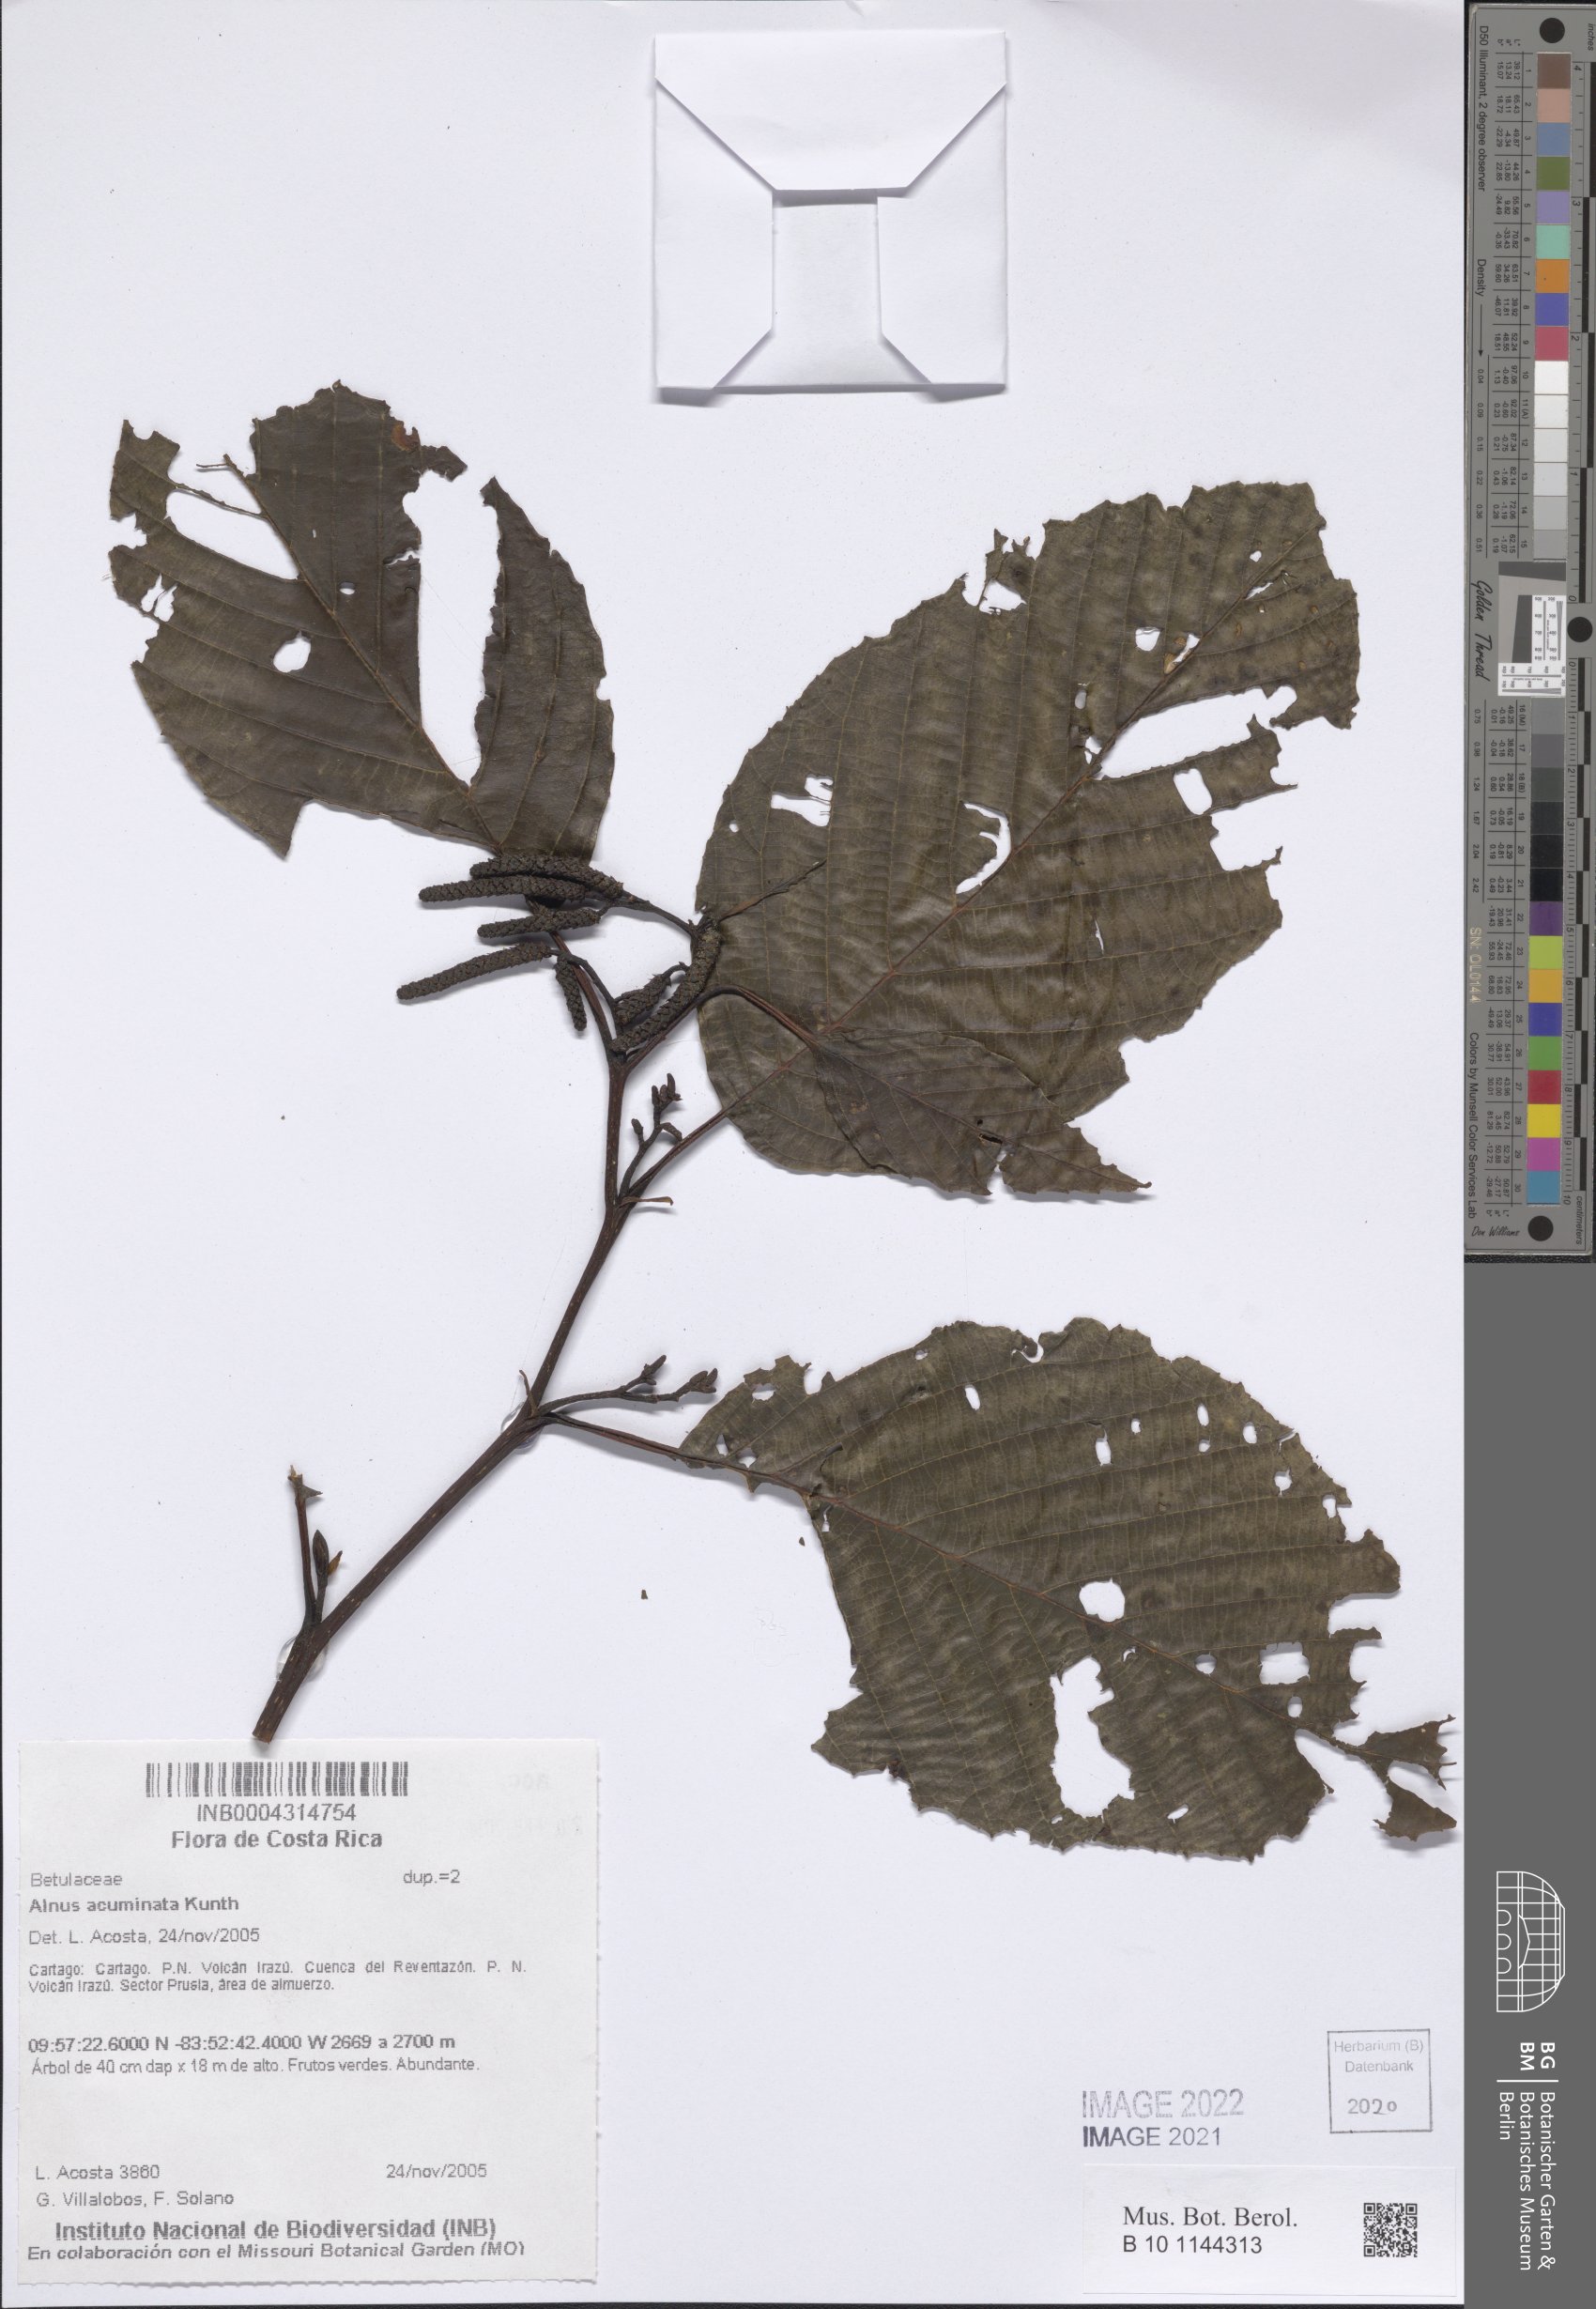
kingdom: Plantae
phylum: Tracheophyta
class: Magnoliopsida
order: Fagales
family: Betulaceae
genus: Alnus
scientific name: Alnus acuminata
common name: Alder
